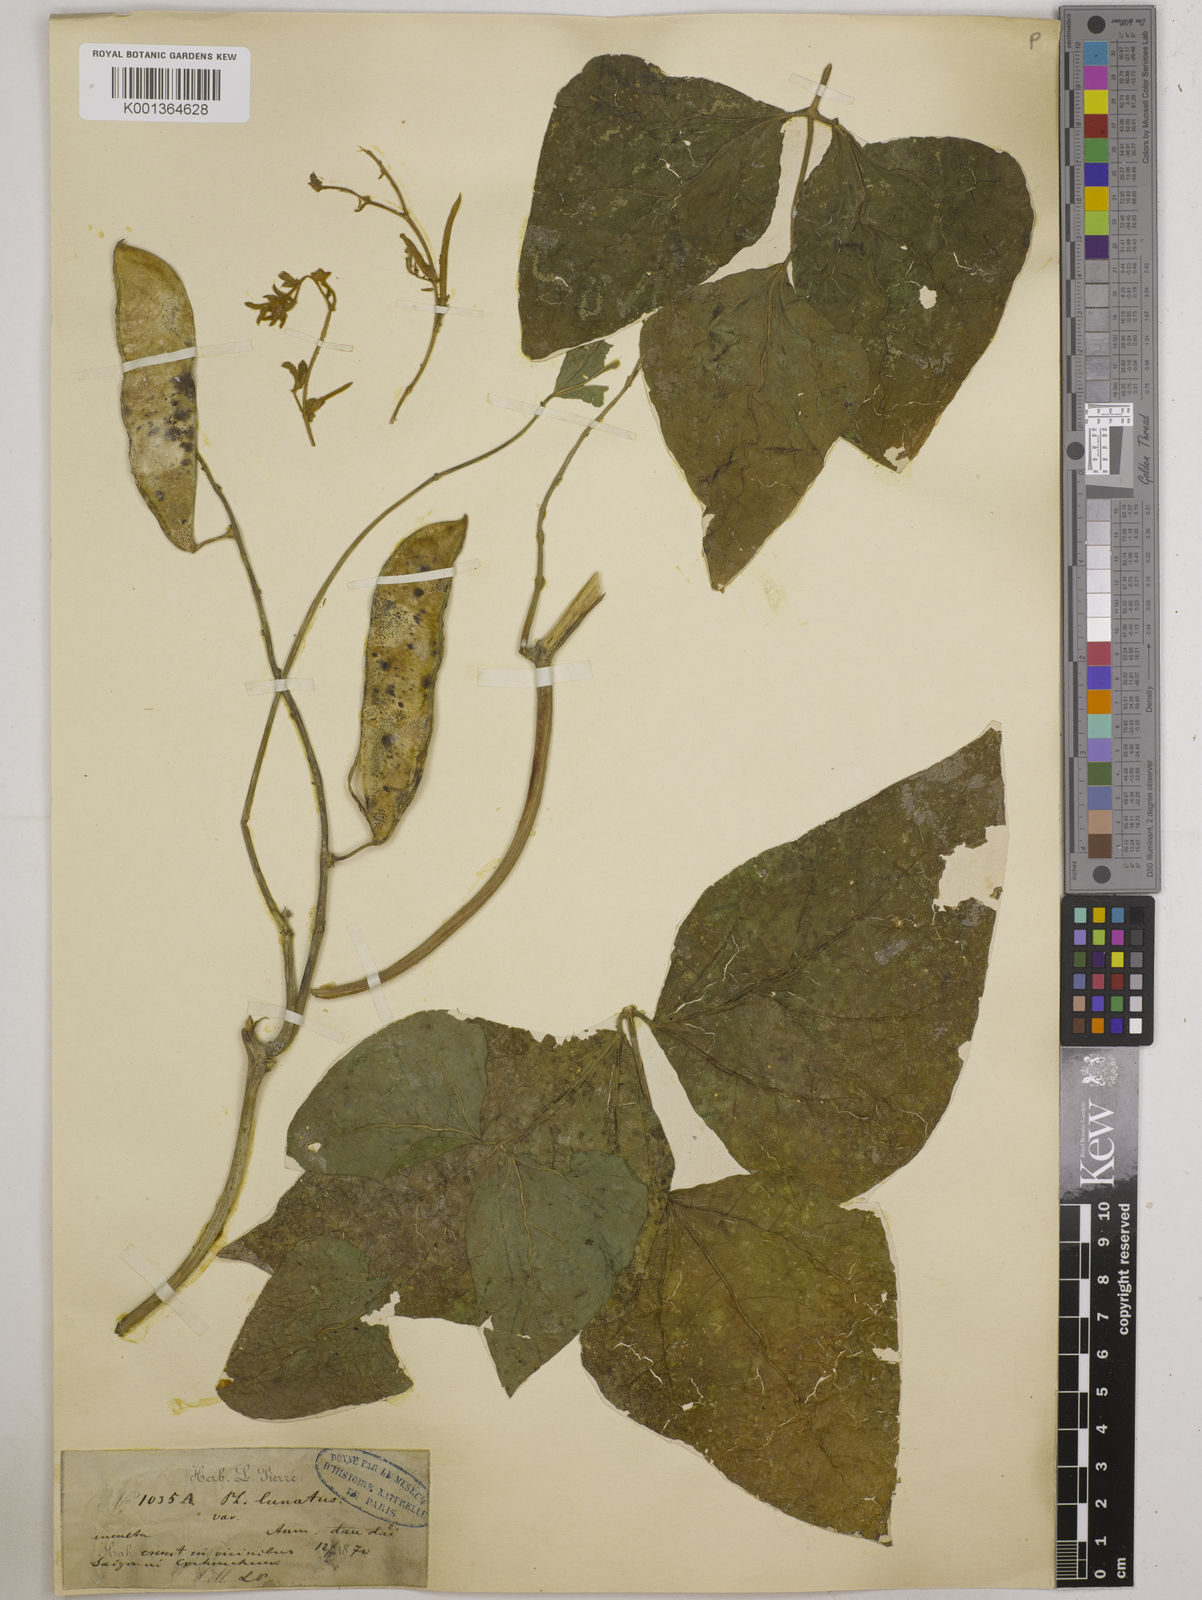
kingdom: Plantae
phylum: Tracheophyta
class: Magnoliopsida
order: Fabales
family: Fabaceae
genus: Phaseolus
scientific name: Phaseolus lunatus
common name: Sieva bean
